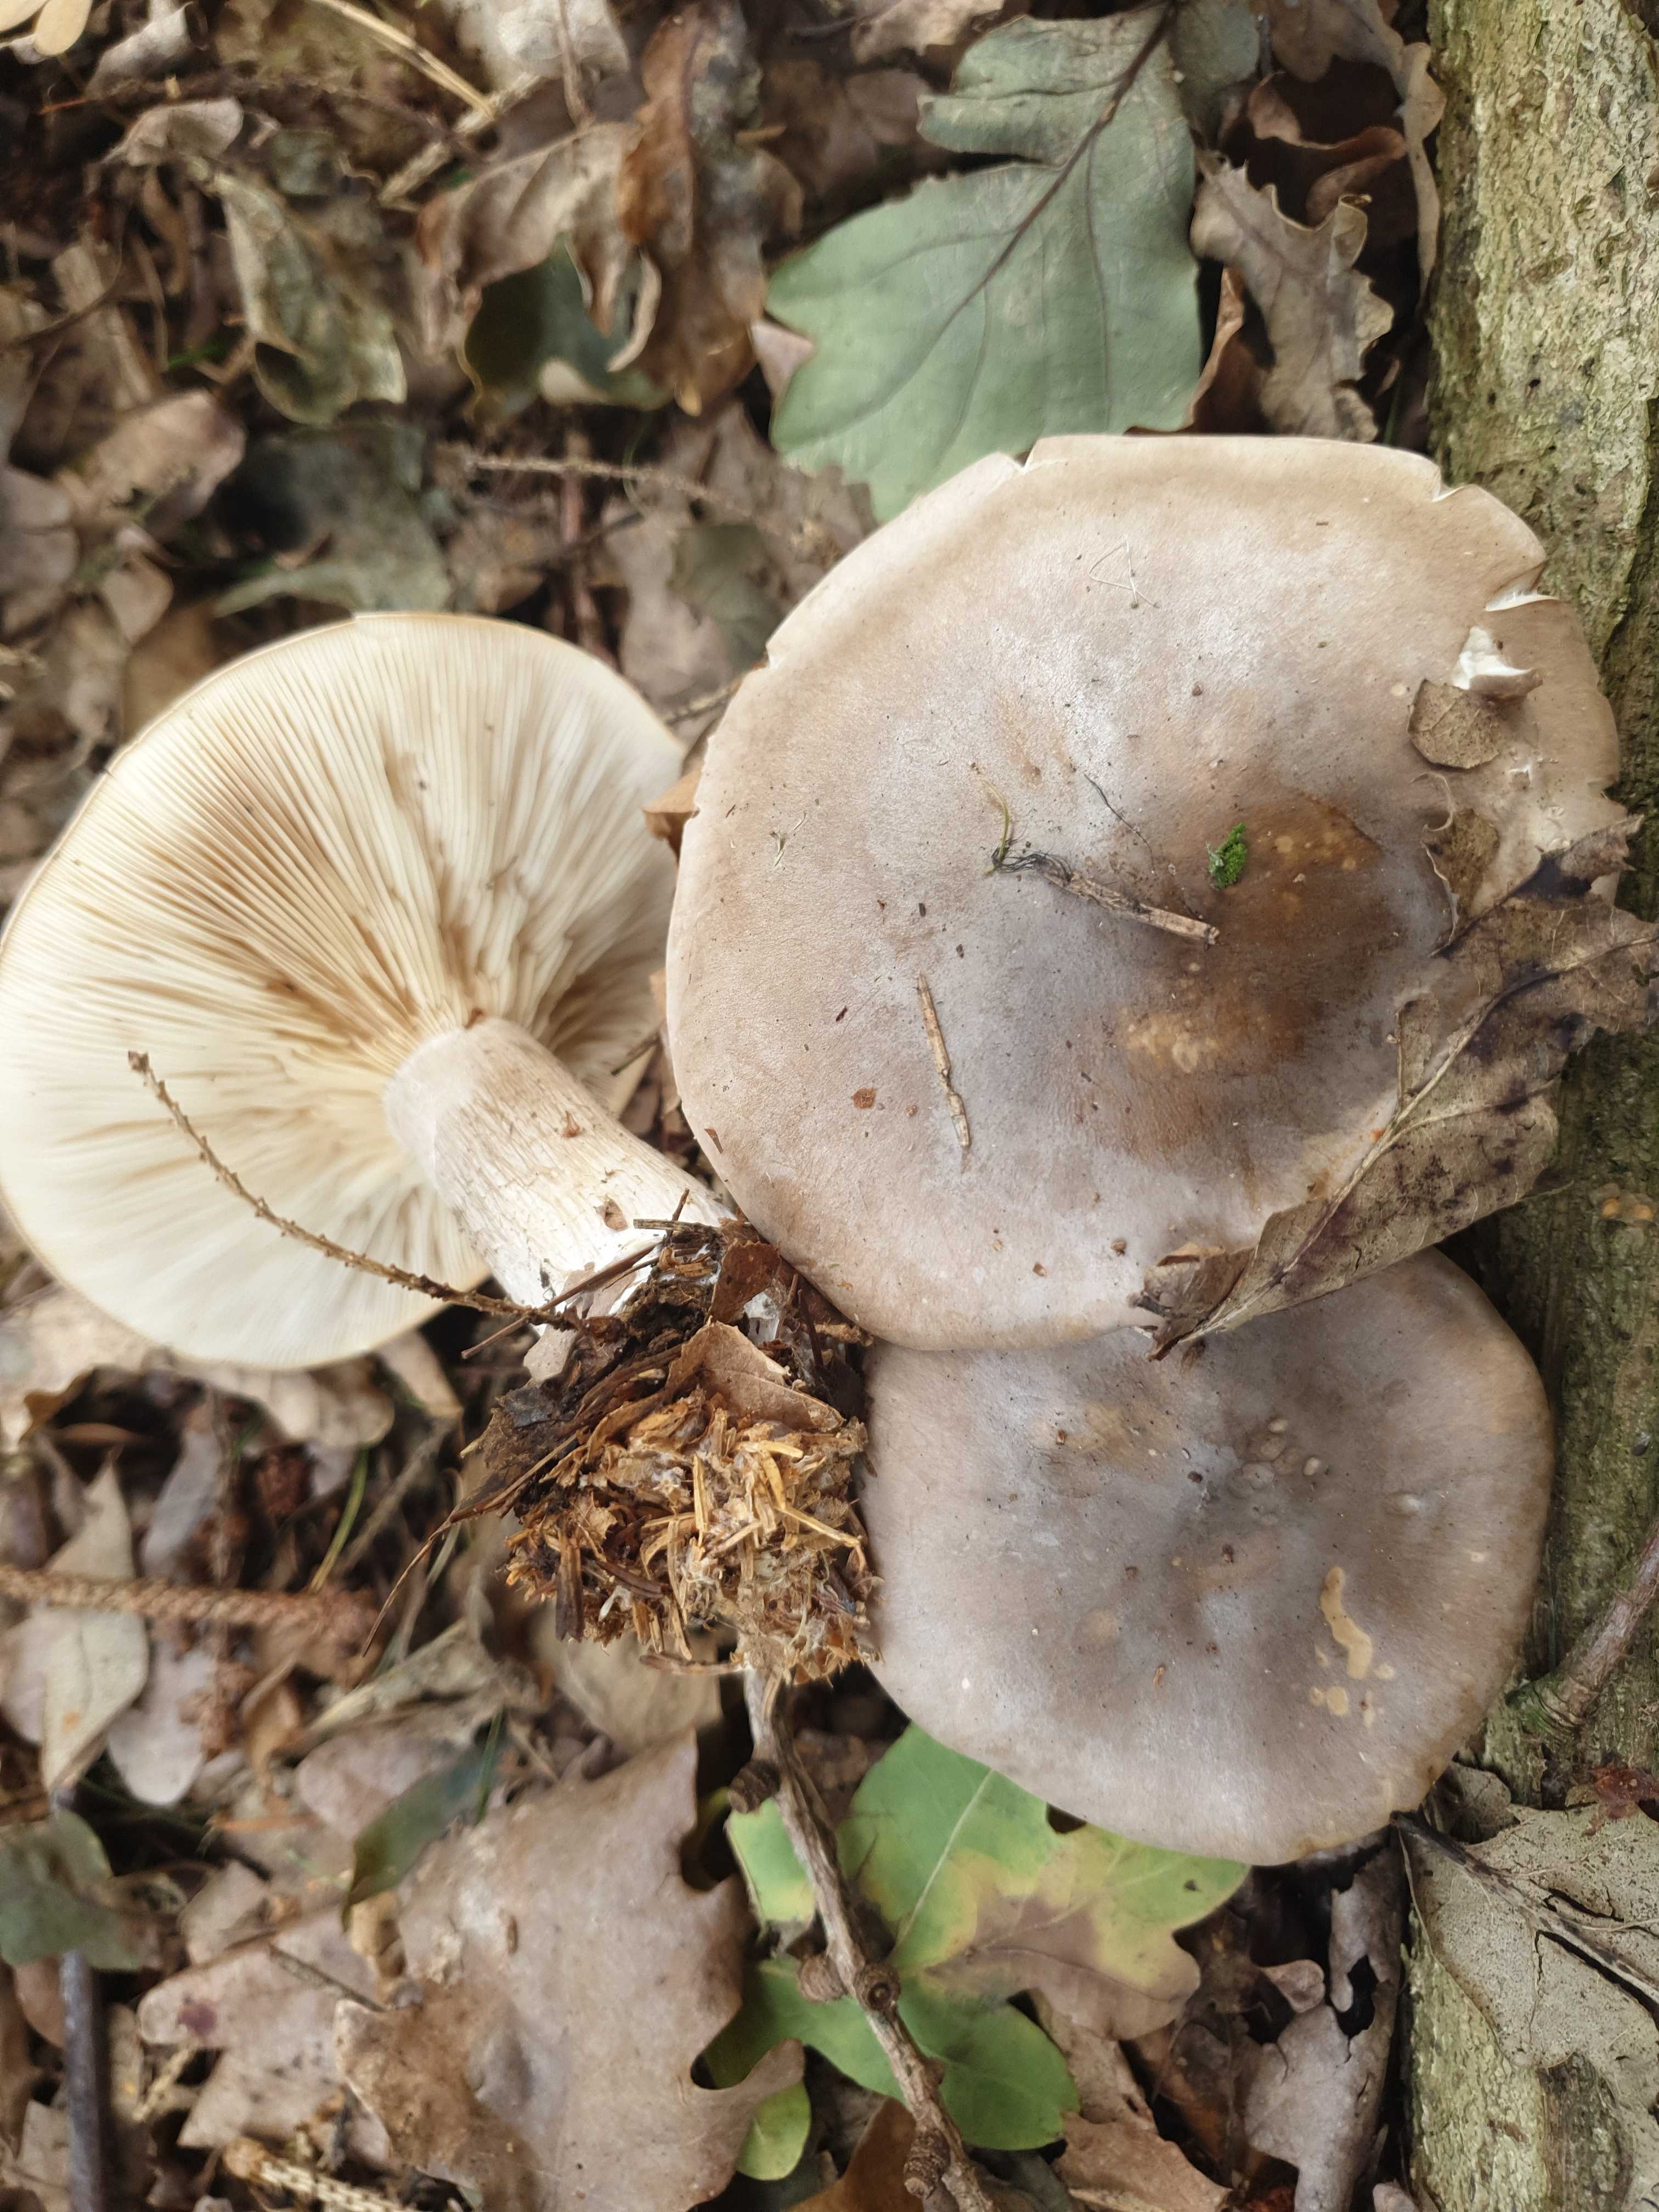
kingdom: Fungi
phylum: Basidiomycota
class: Agaricomycetes
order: Agaricales
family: Tricholomataceae
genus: Clitocybe
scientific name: Clitocybe nebularis
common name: tåge-tragthat
